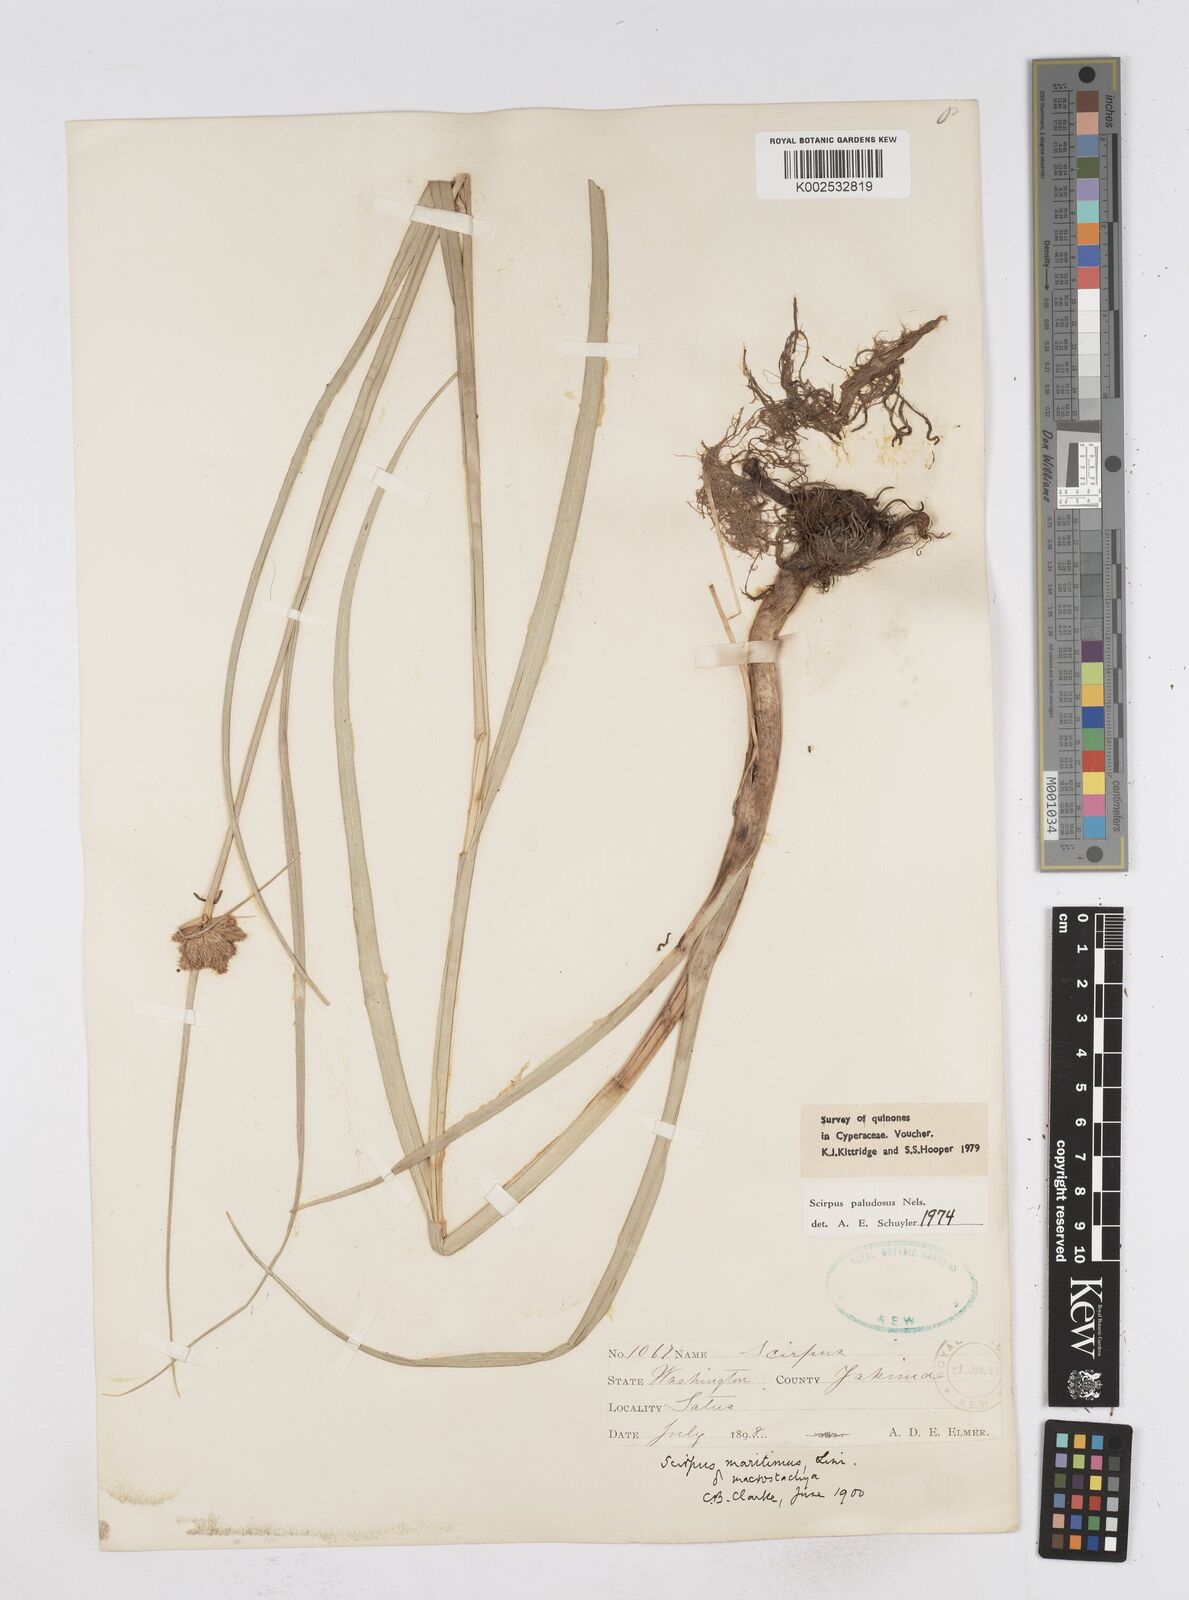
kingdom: Plantae
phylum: Tracheophyta
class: Liliopsida
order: Poales
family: Cyperaceae
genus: Bolboschoenus
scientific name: Bolboschoenus maritimus
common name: Sea club-rush
